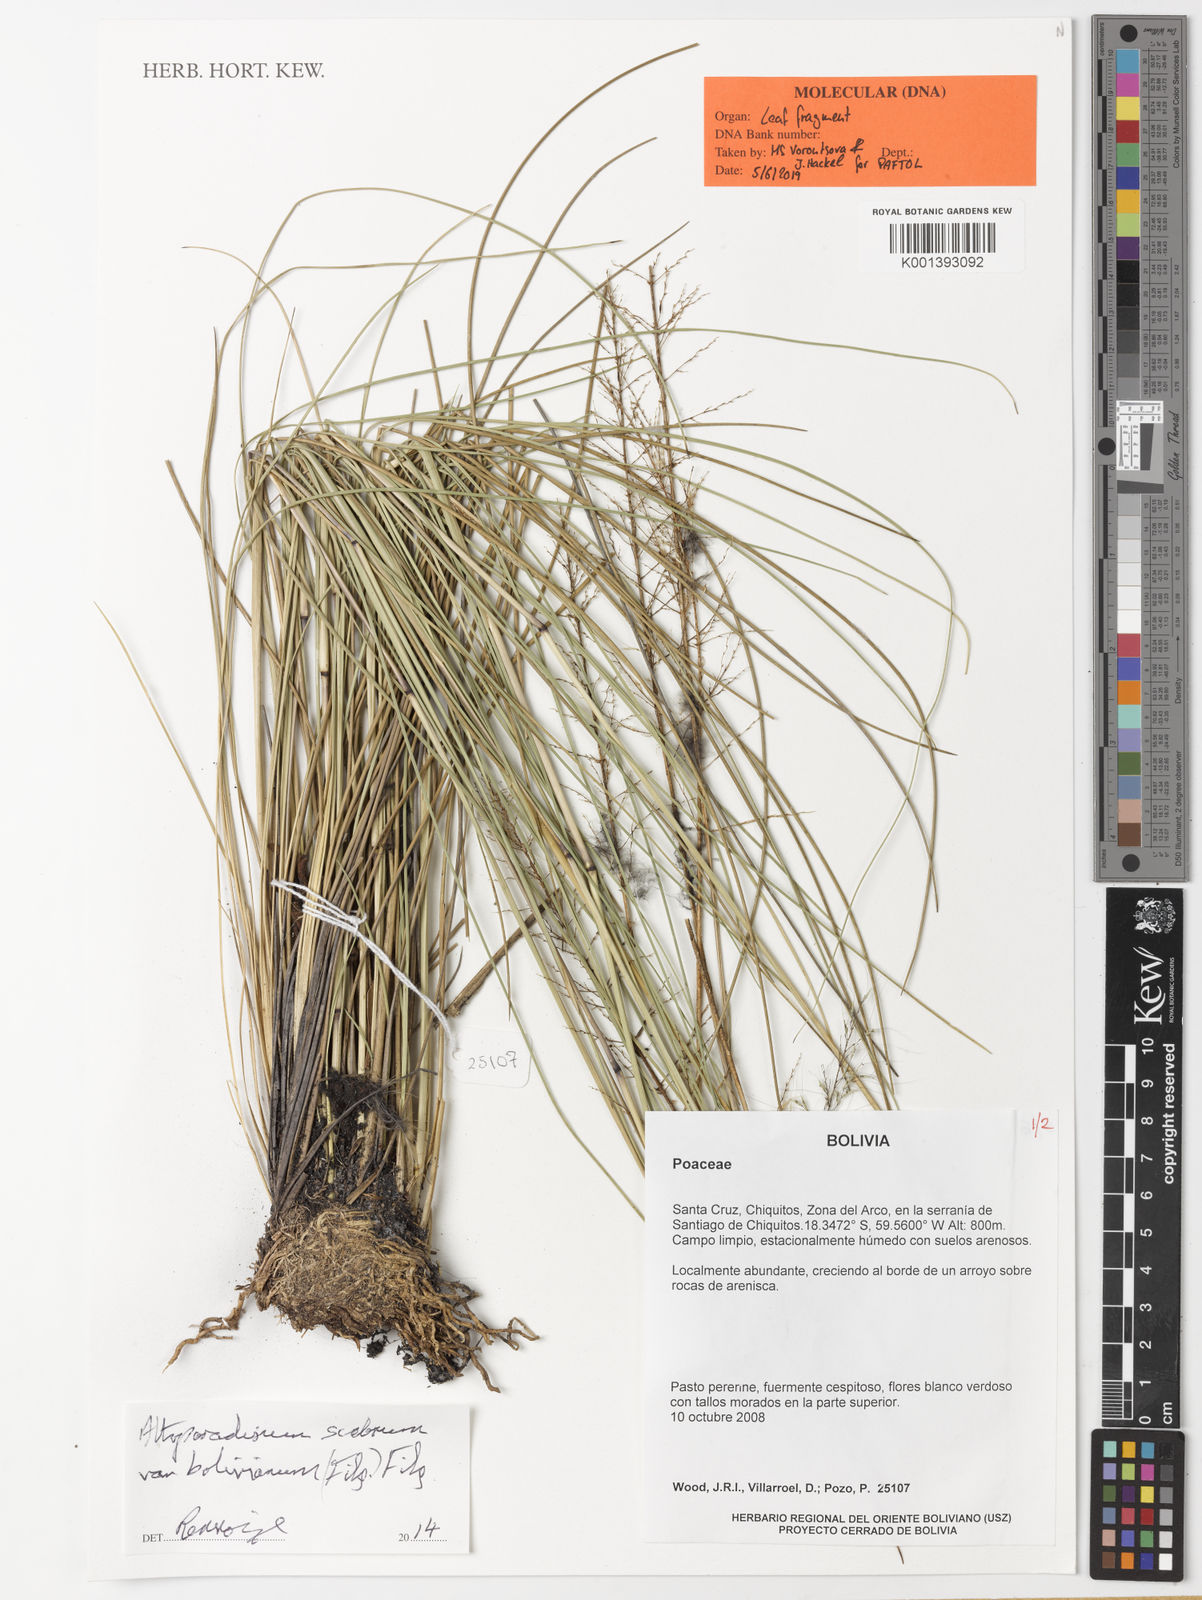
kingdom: Plantae
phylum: Tracheophyta
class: Liliopsida
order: Poales
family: Poaceae
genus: Altoparadisium
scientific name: Altoparadisium scabrum
